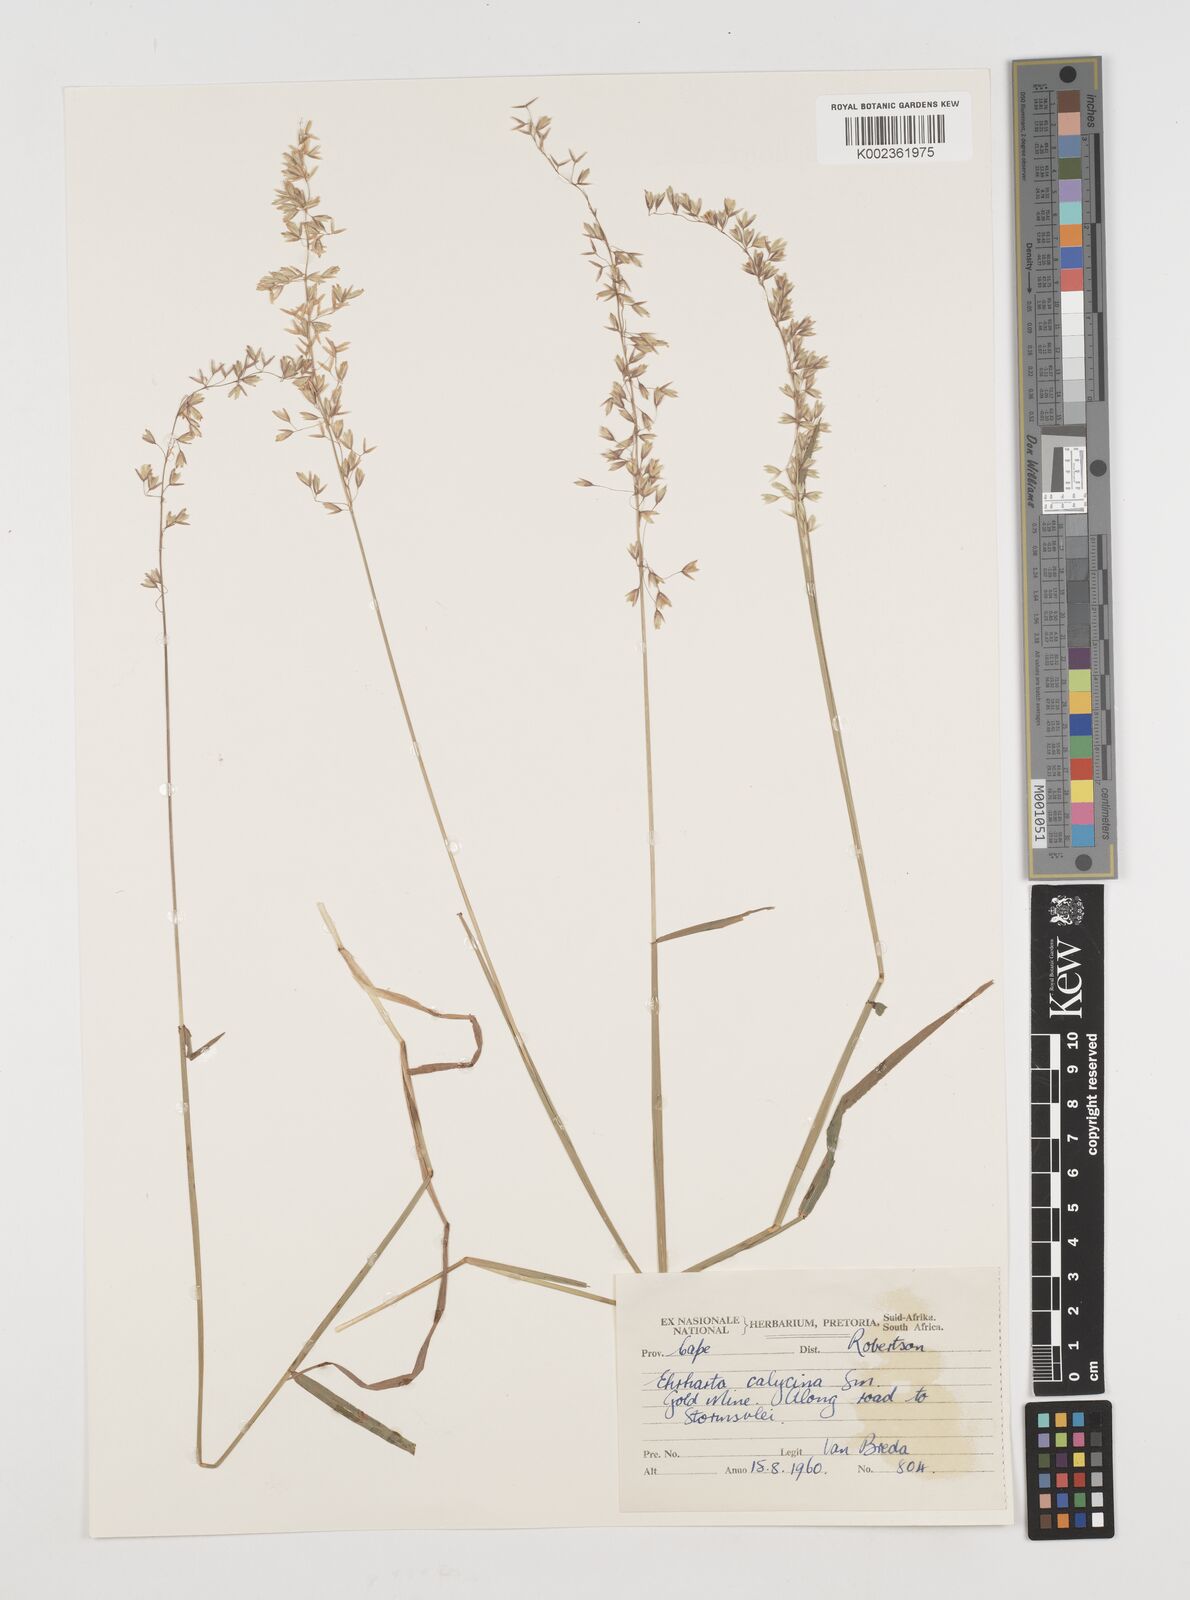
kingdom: Plantae
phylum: Tracheophyta
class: Liliopsida
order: Poales
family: Poaceae
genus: Ehrharta
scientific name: Ehrharta calycina
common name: Perennial veldtgrass
